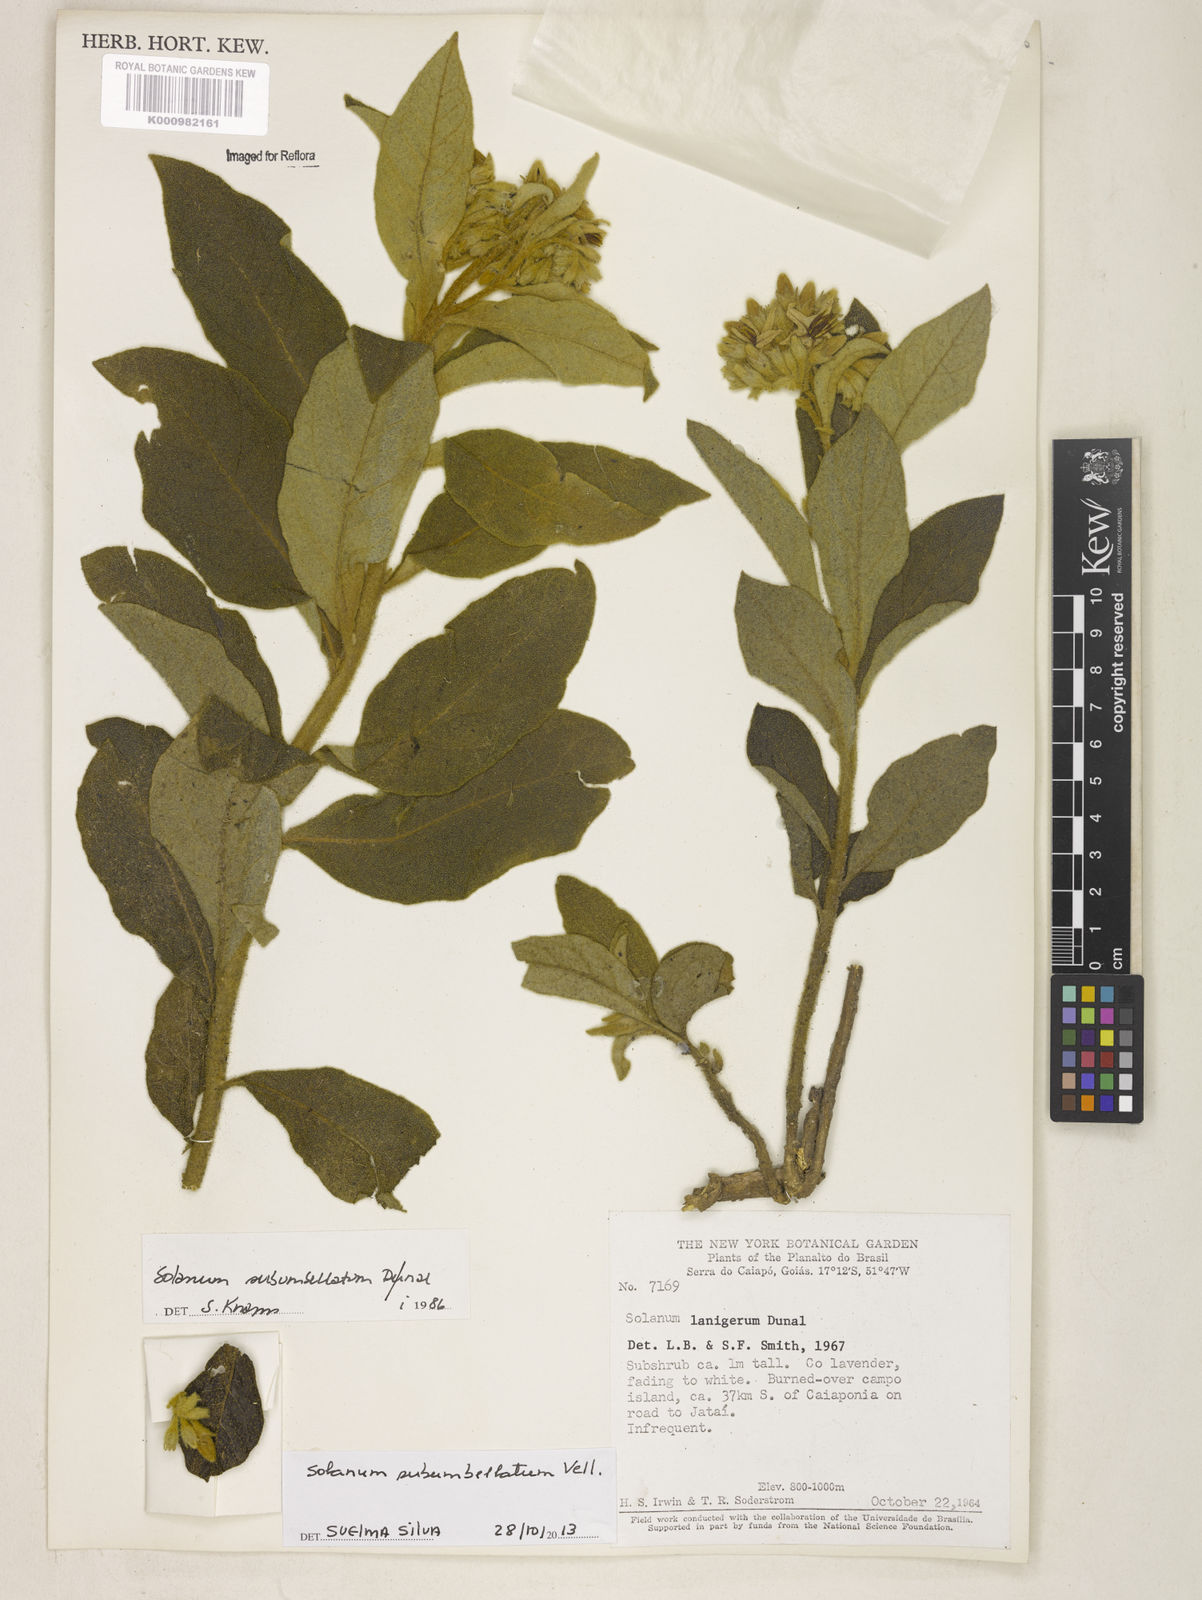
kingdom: Plantae
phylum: Tracheophyta
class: Magnoliopsida
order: Solanales
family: Solanaceae
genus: Solanum
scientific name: Solanum subumbellatum
